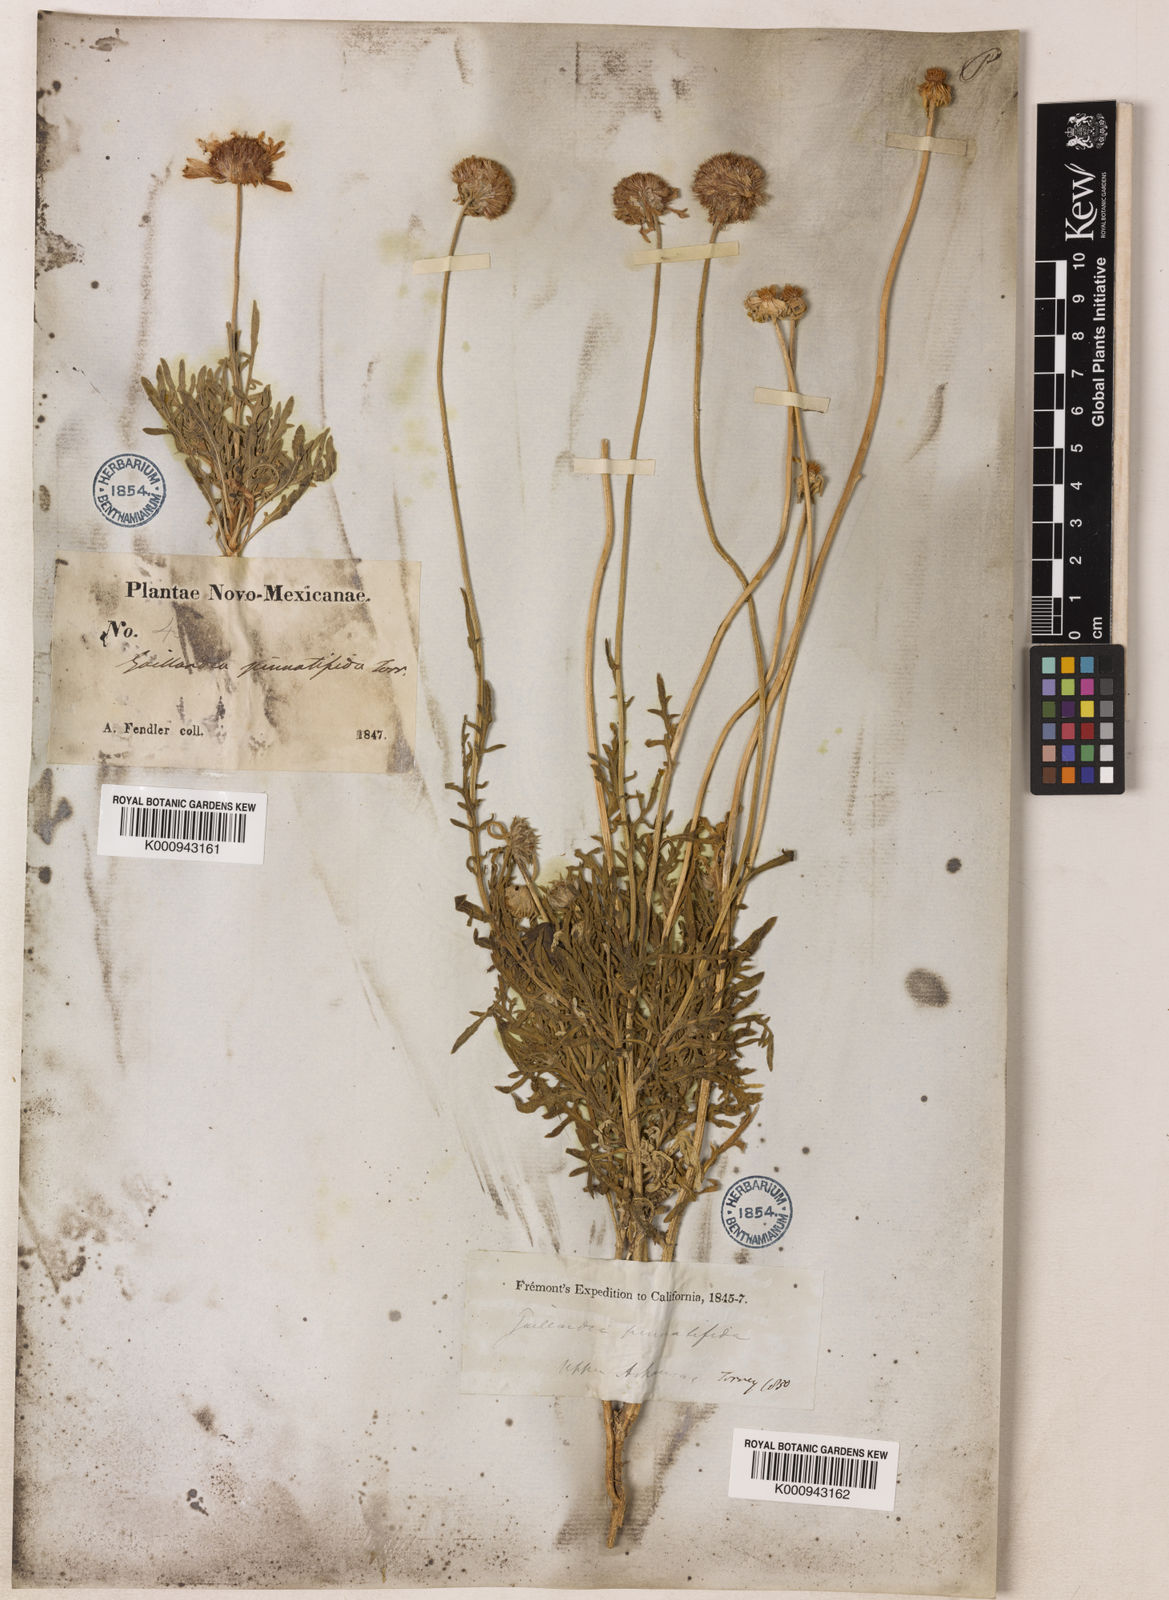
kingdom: Plantae
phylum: Tracheophyta
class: Magnoliopsida
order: Asterales
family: Asteraceae
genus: Gaillardia
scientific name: Gaillardia pinnatifida
